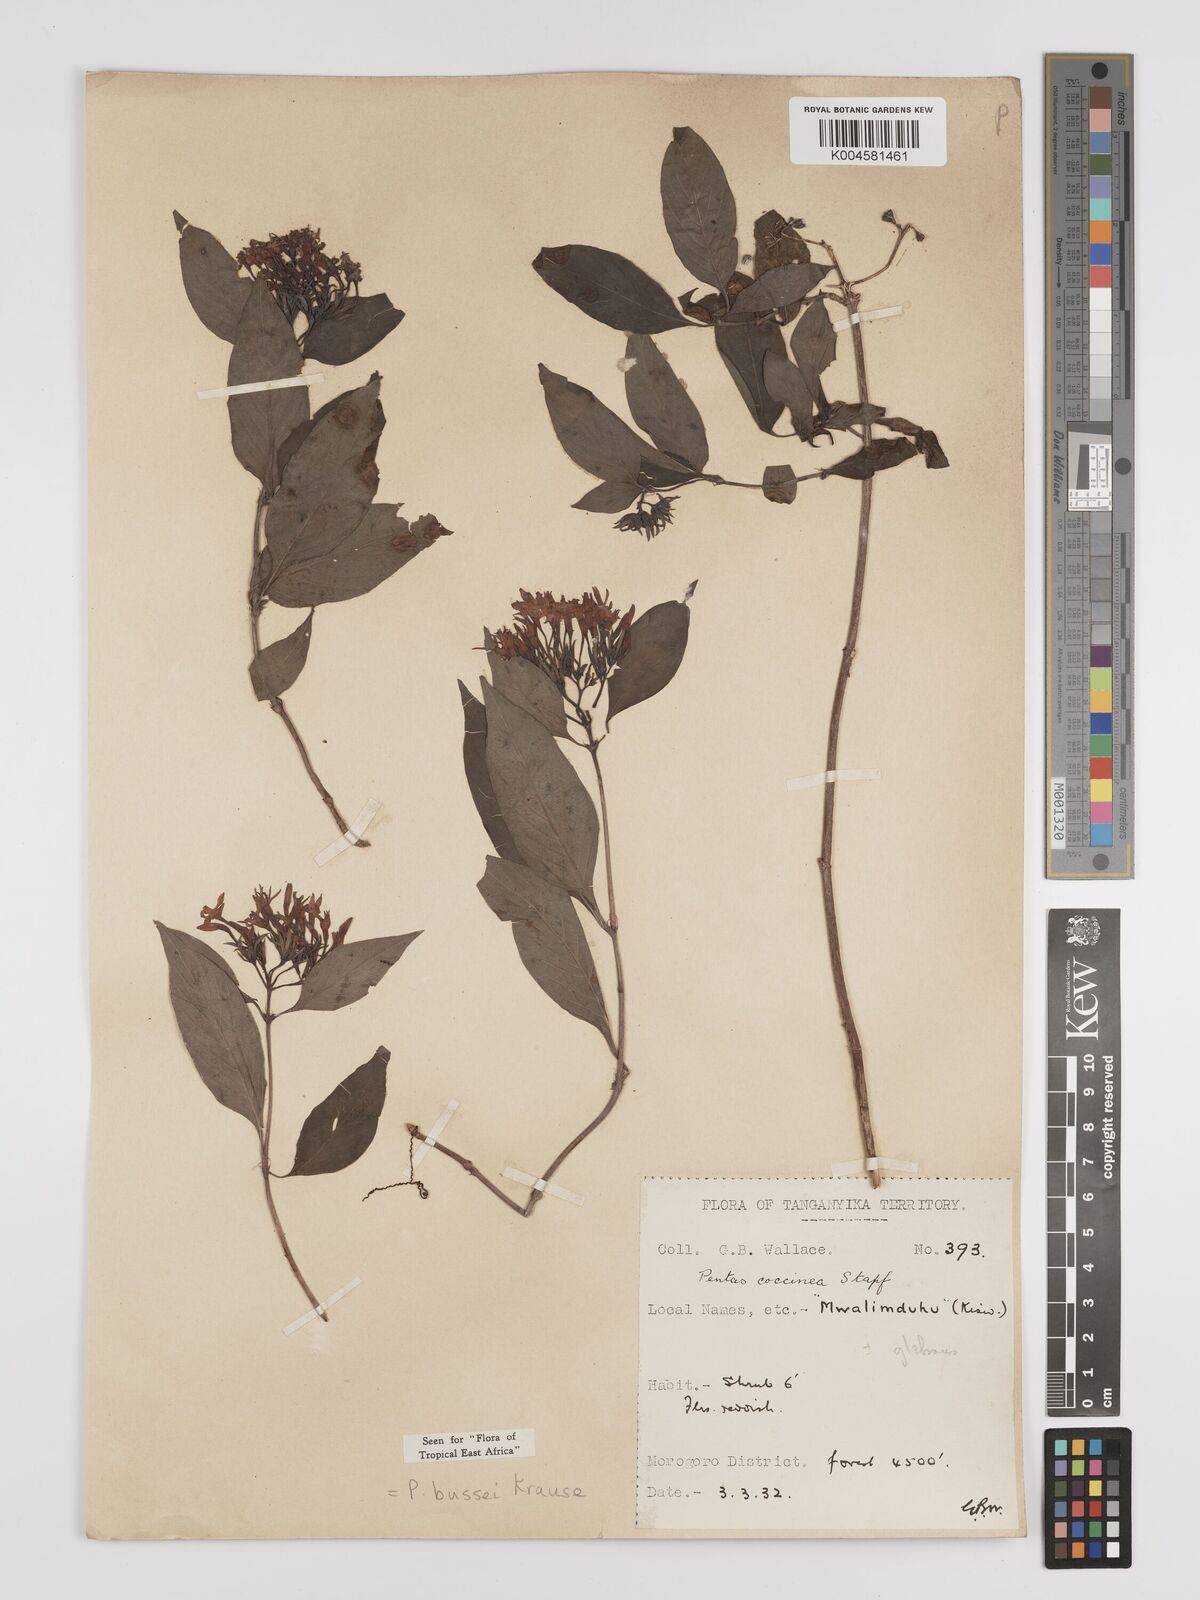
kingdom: Plantae
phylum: Tracheophyta
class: Magnoliopsida
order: Gentianales
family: Rubiaceae
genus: Rhodopentas
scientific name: Rhodopentas bussei
